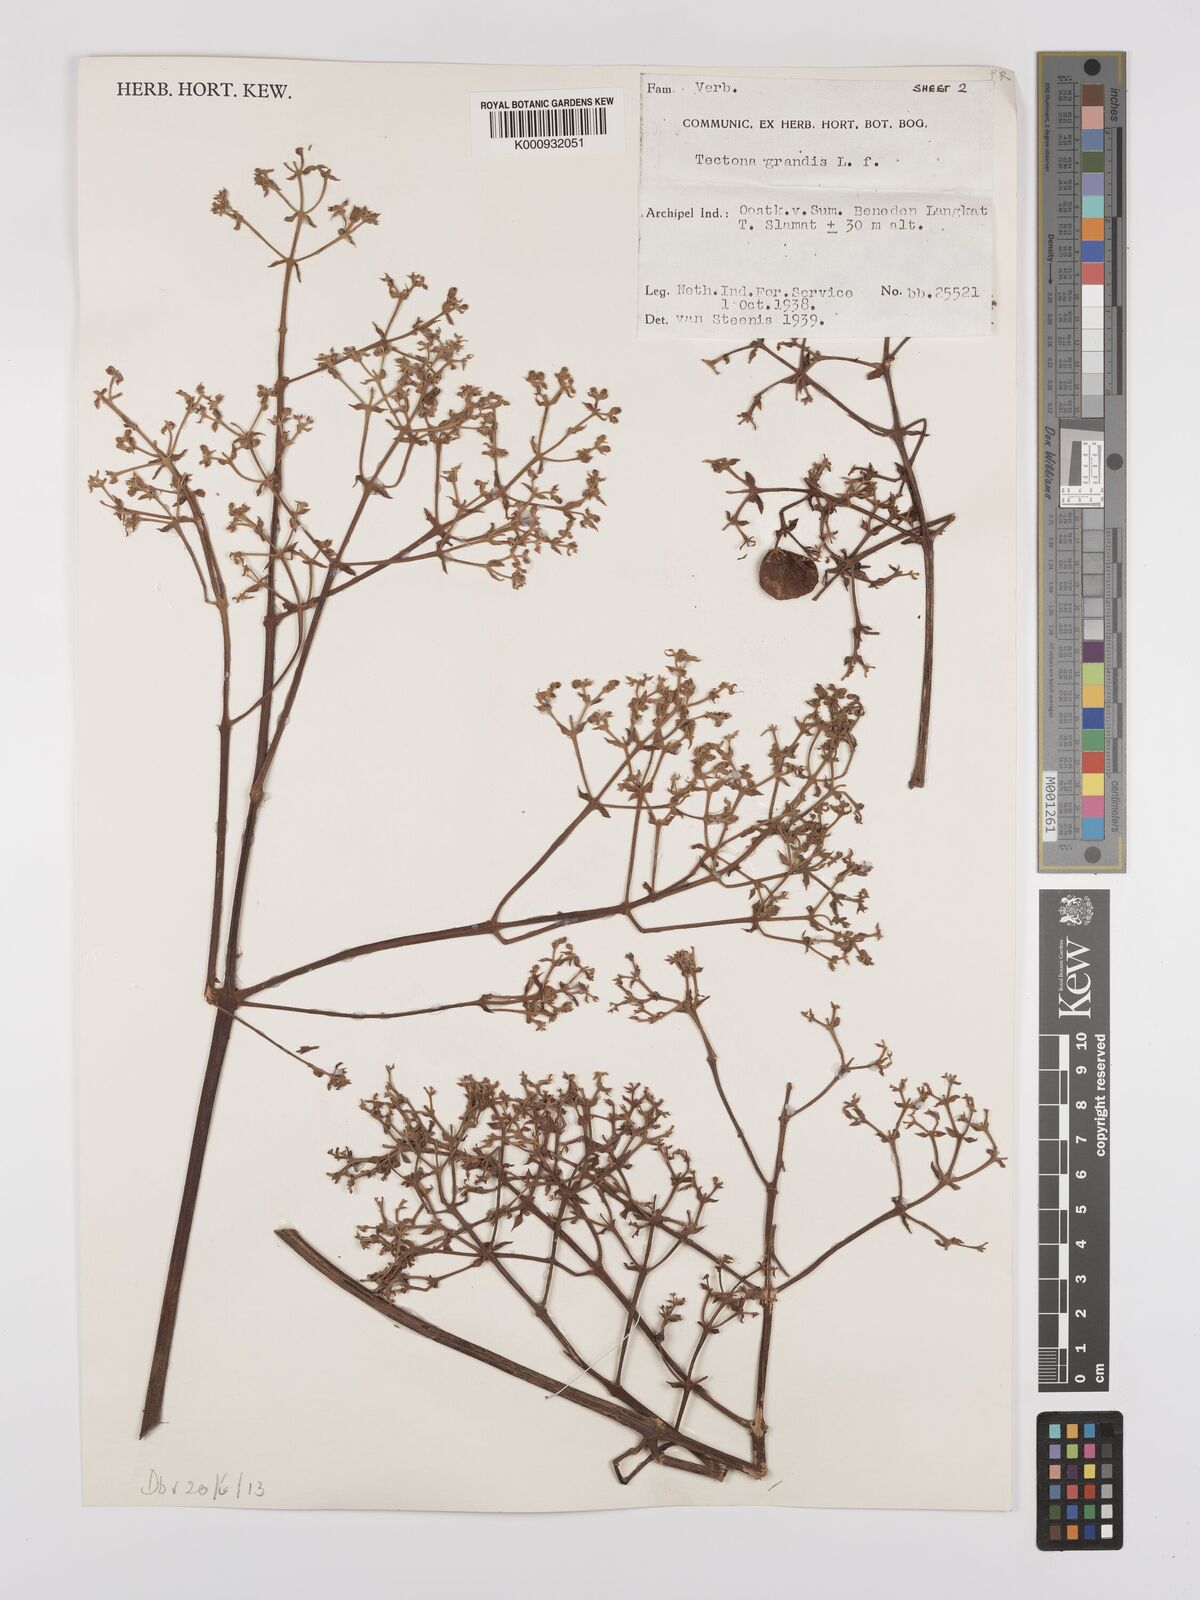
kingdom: Plantae
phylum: Tracheophyta
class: Magnoliopsida
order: Lamiales
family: Lamiaceae
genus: Tectona
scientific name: Tectona grandis
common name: Teak
